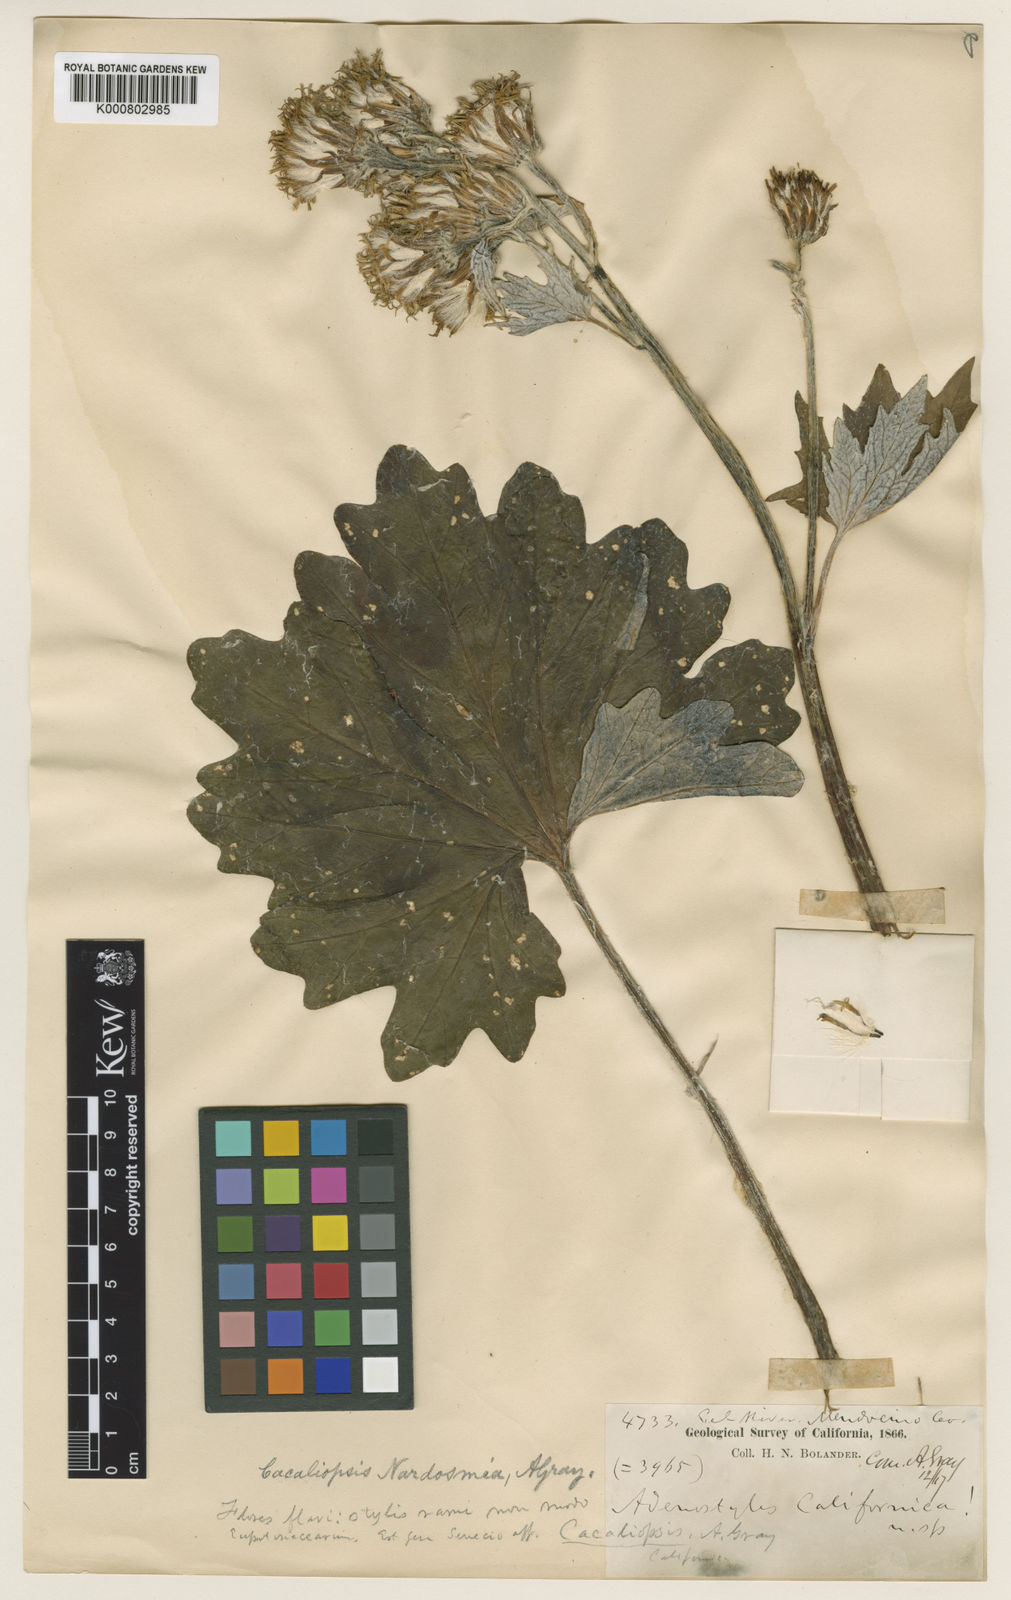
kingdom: Plantae
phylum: Tracheophyta
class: Magnoliopsida
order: Asterales
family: Asteraceae
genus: Cacaliopsis
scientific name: Cacaliopsis nardosmia
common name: Silvercrown
